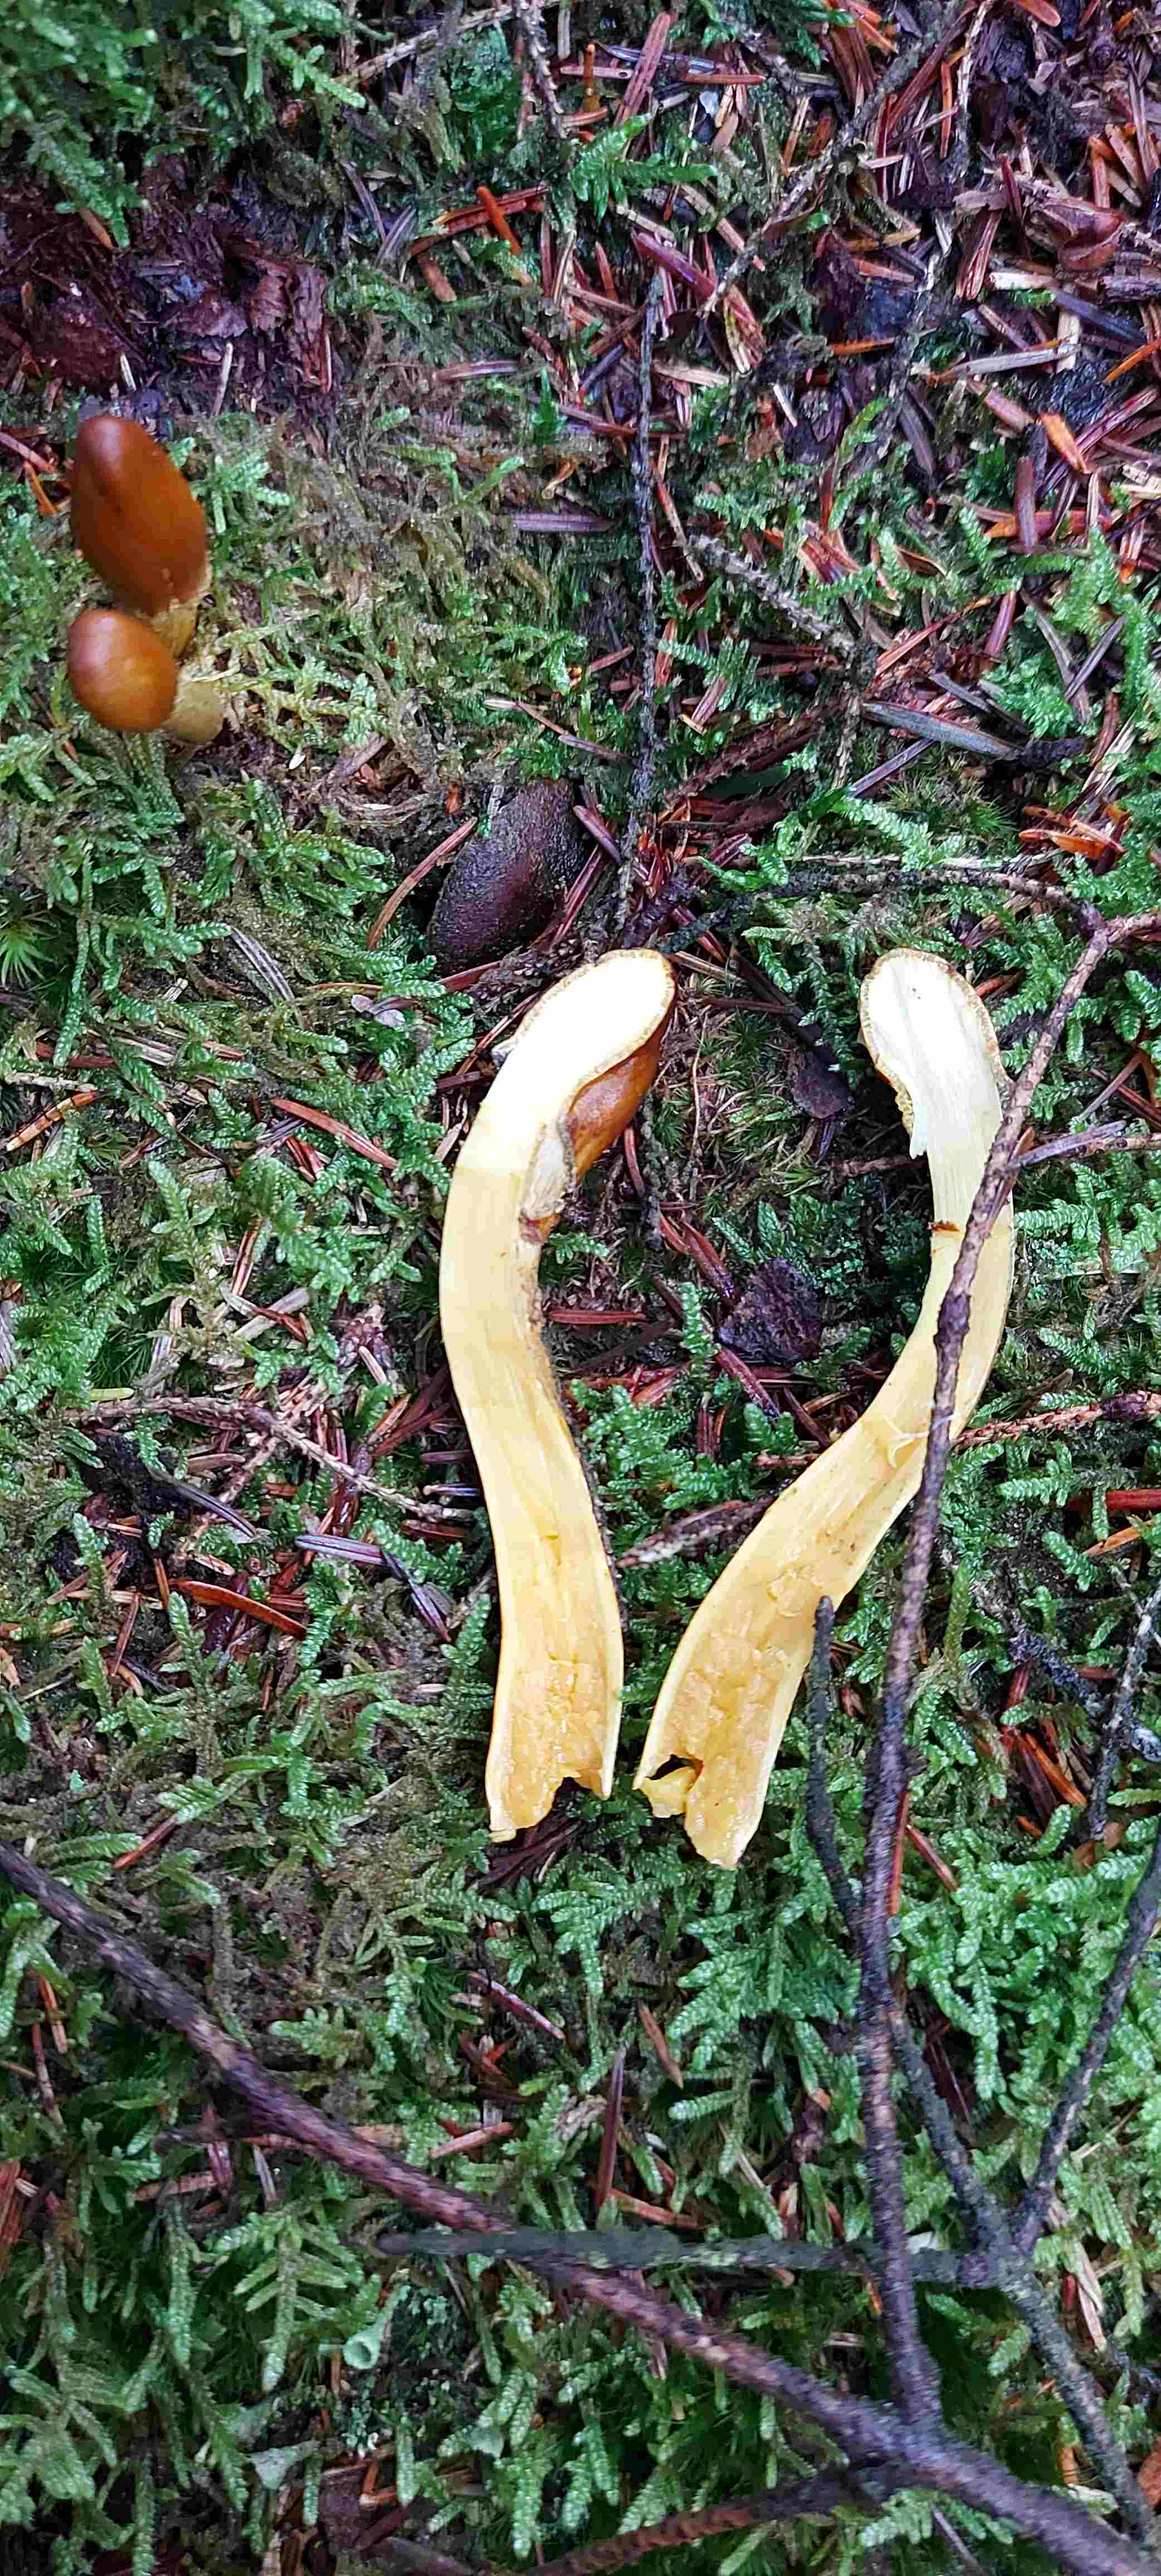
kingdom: Fungi
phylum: Ascomycota
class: Sordariomycetes
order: Hypocreales
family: Ophiocordycipitaceae
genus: Tolypocladium
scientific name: Tolypocladium capitatum
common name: højstokket snyltekølle
